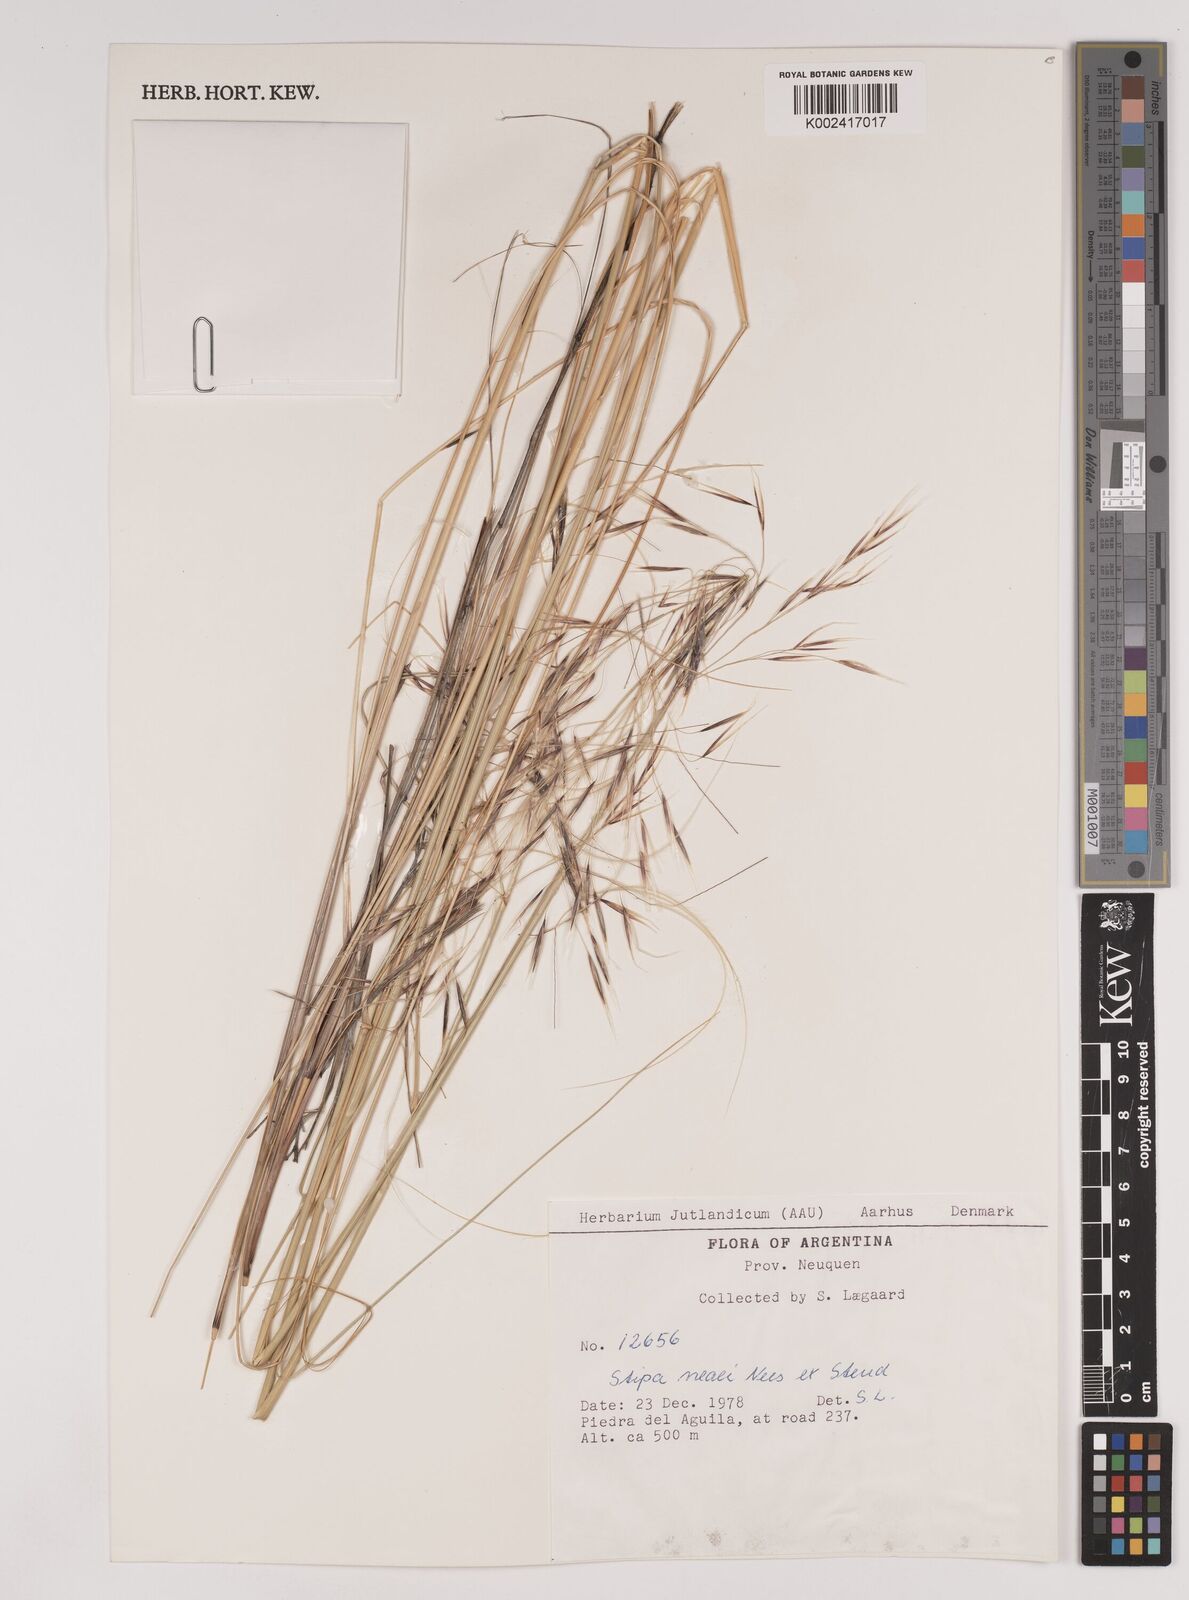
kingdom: Plantae
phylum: Tracheophyta
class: Liliopsida
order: Poales
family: Poaceae
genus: Stipa
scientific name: Stipa neaei
